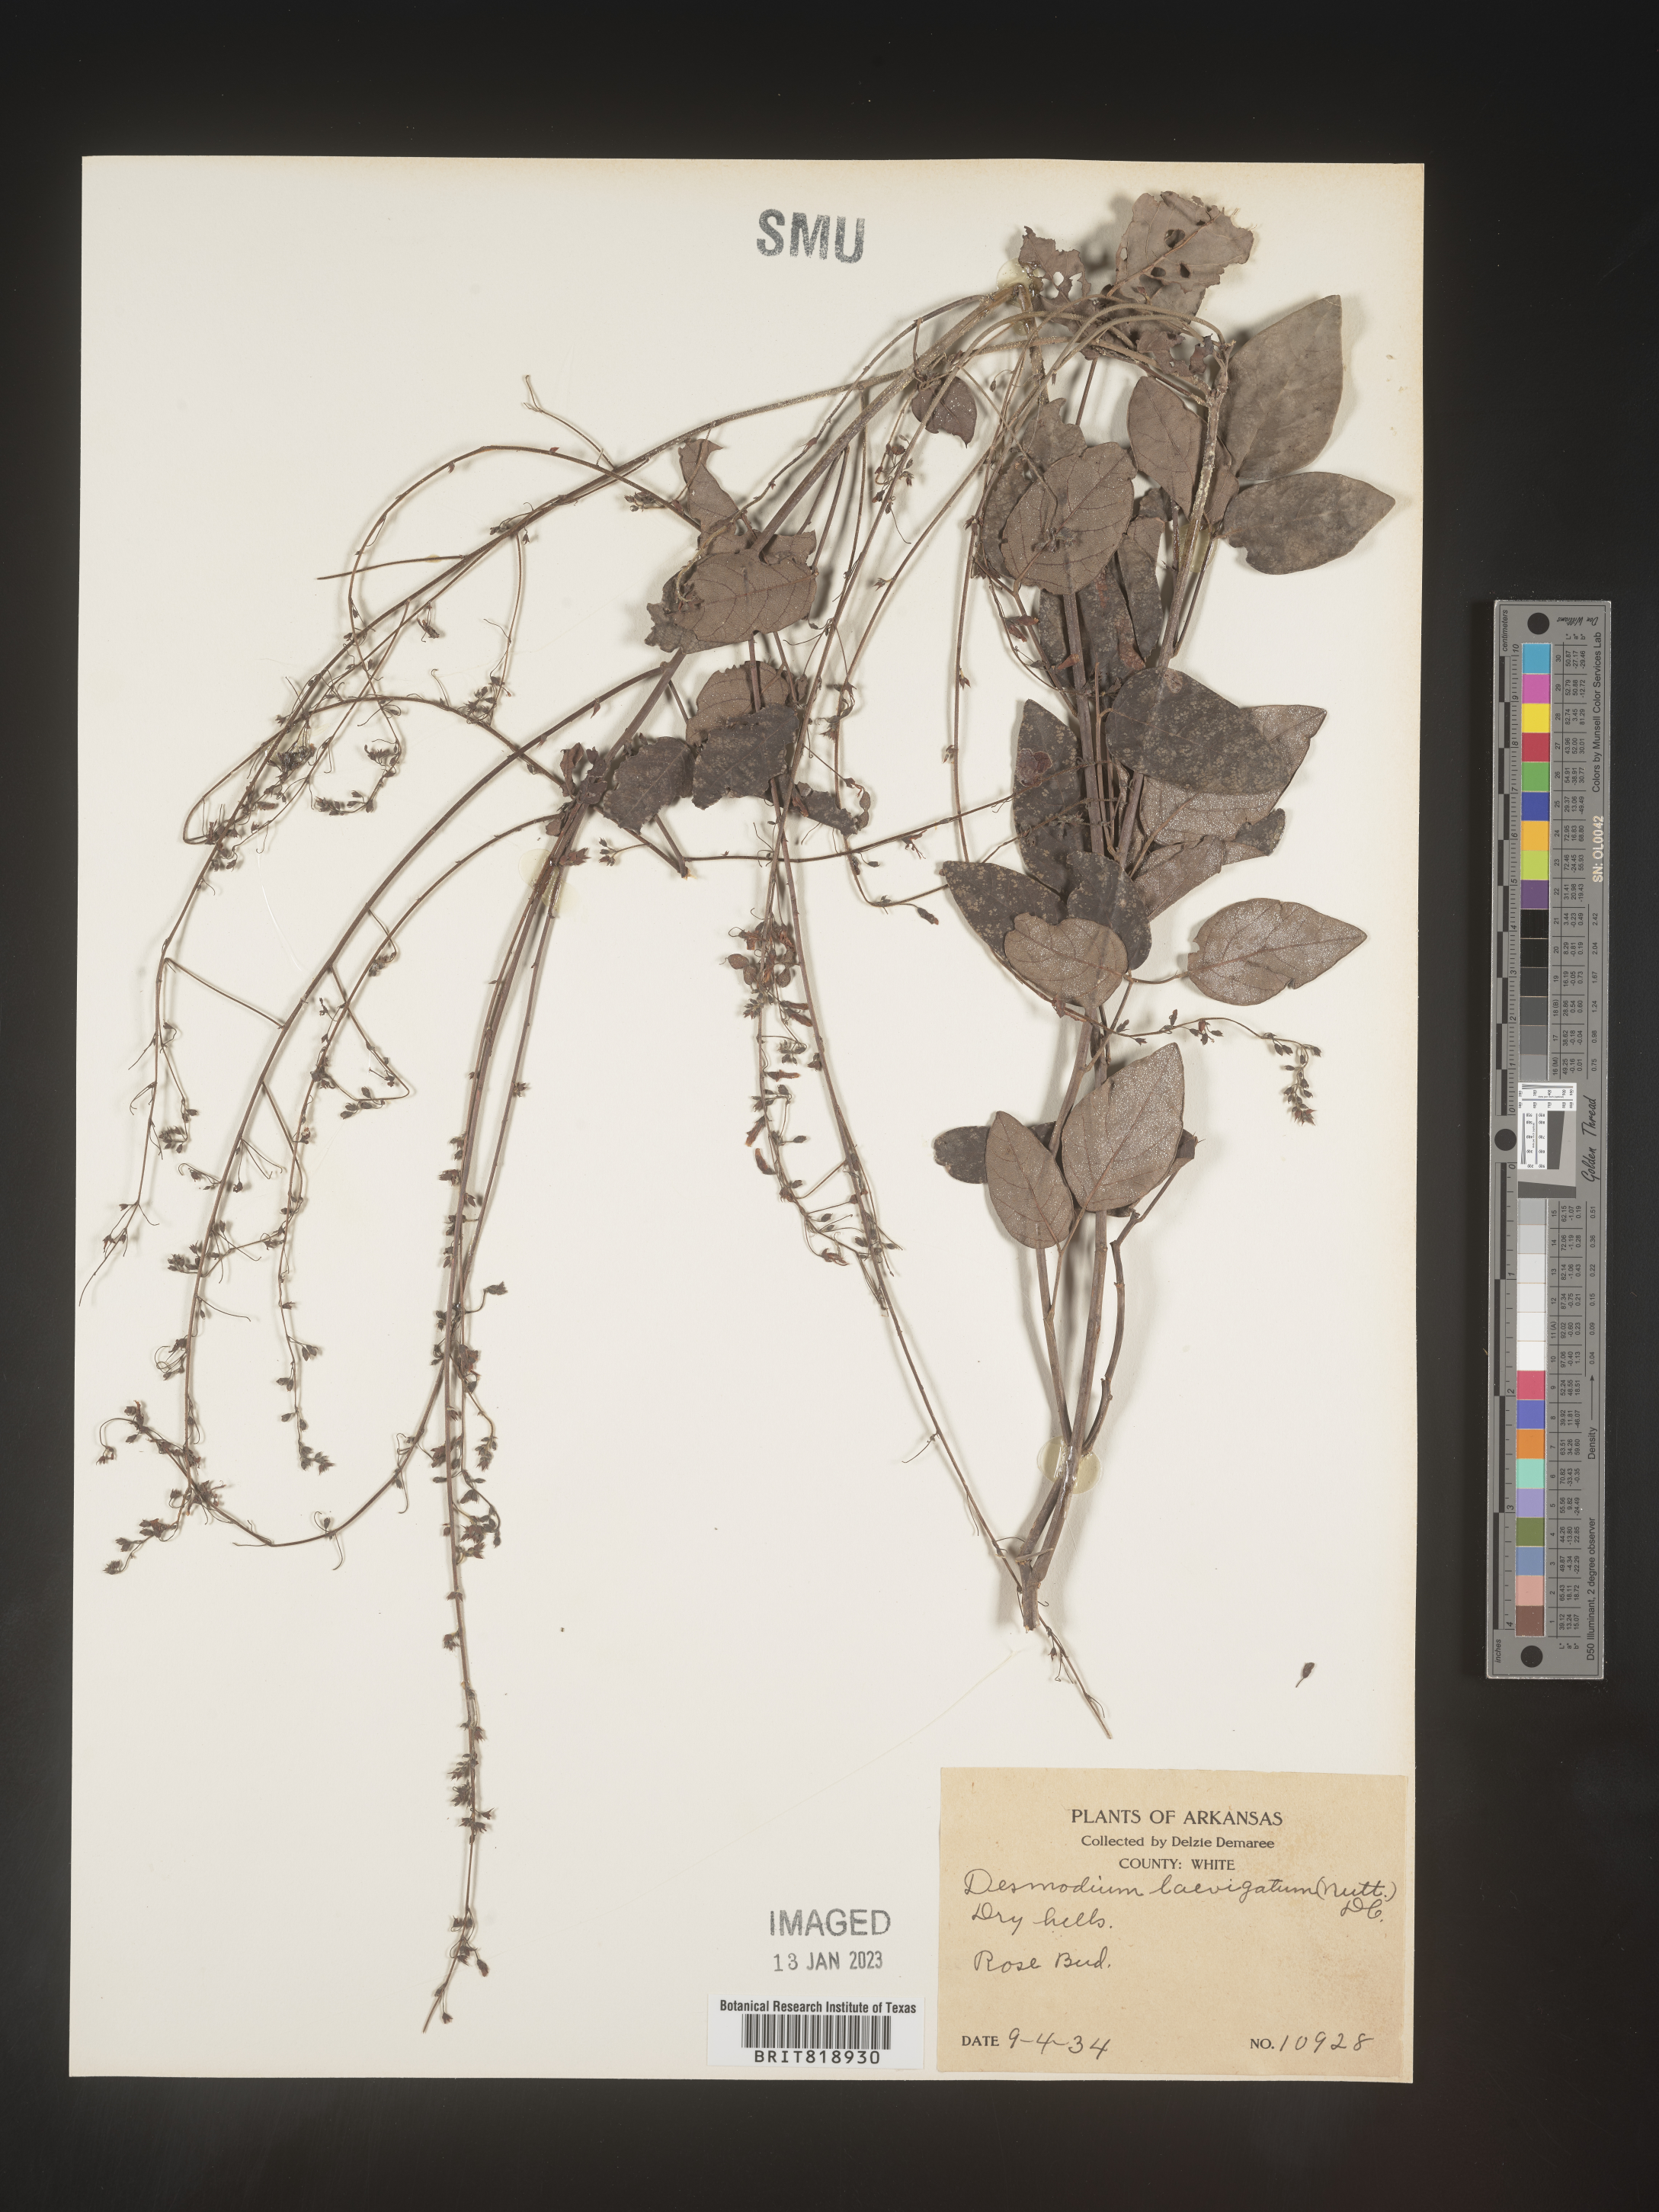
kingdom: Plantae
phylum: Tracheophyta
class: Magnoliopsida
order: Fabales
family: Fabaceae
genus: Desmodium
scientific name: Desmodium laevigatum
